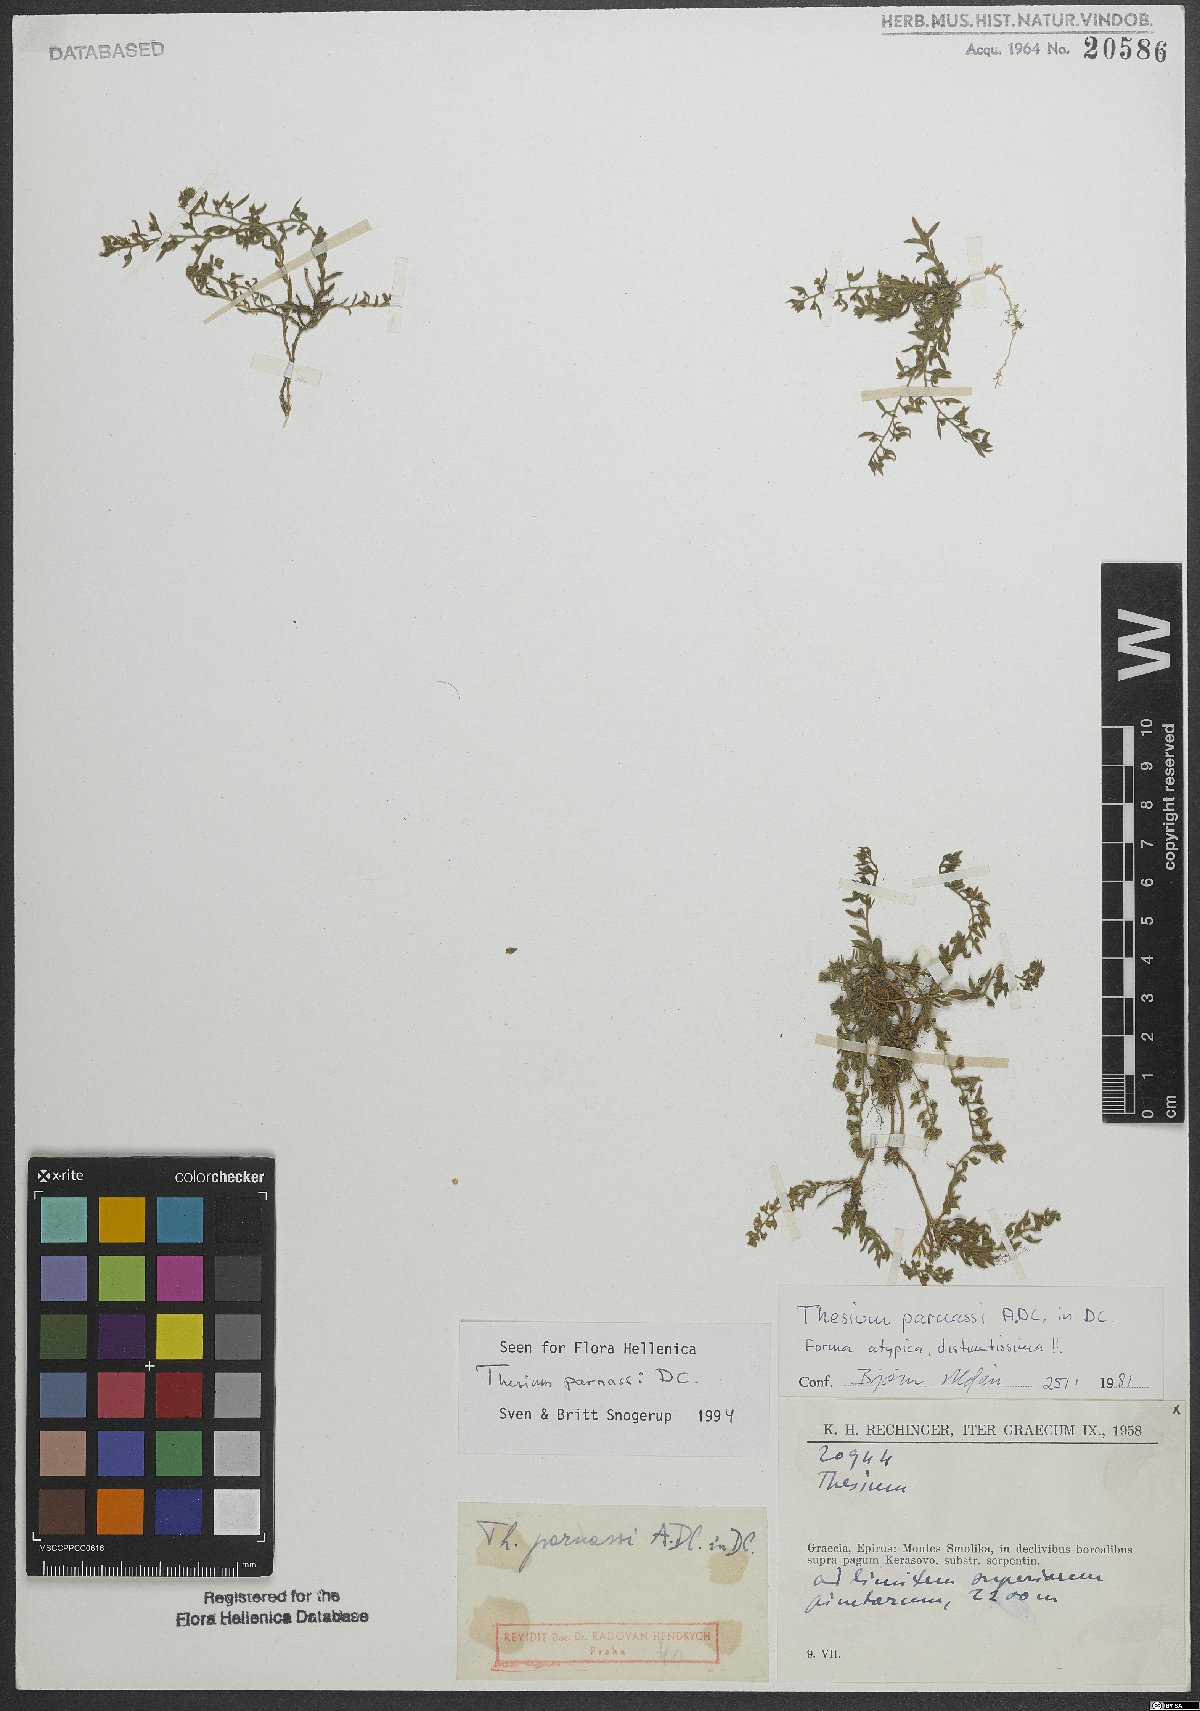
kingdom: Plantae
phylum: Tracheophyta
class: Magnoliopsida
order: Santalales
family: Thesiaceae
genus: Thesium
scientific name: Thesium parnassi
